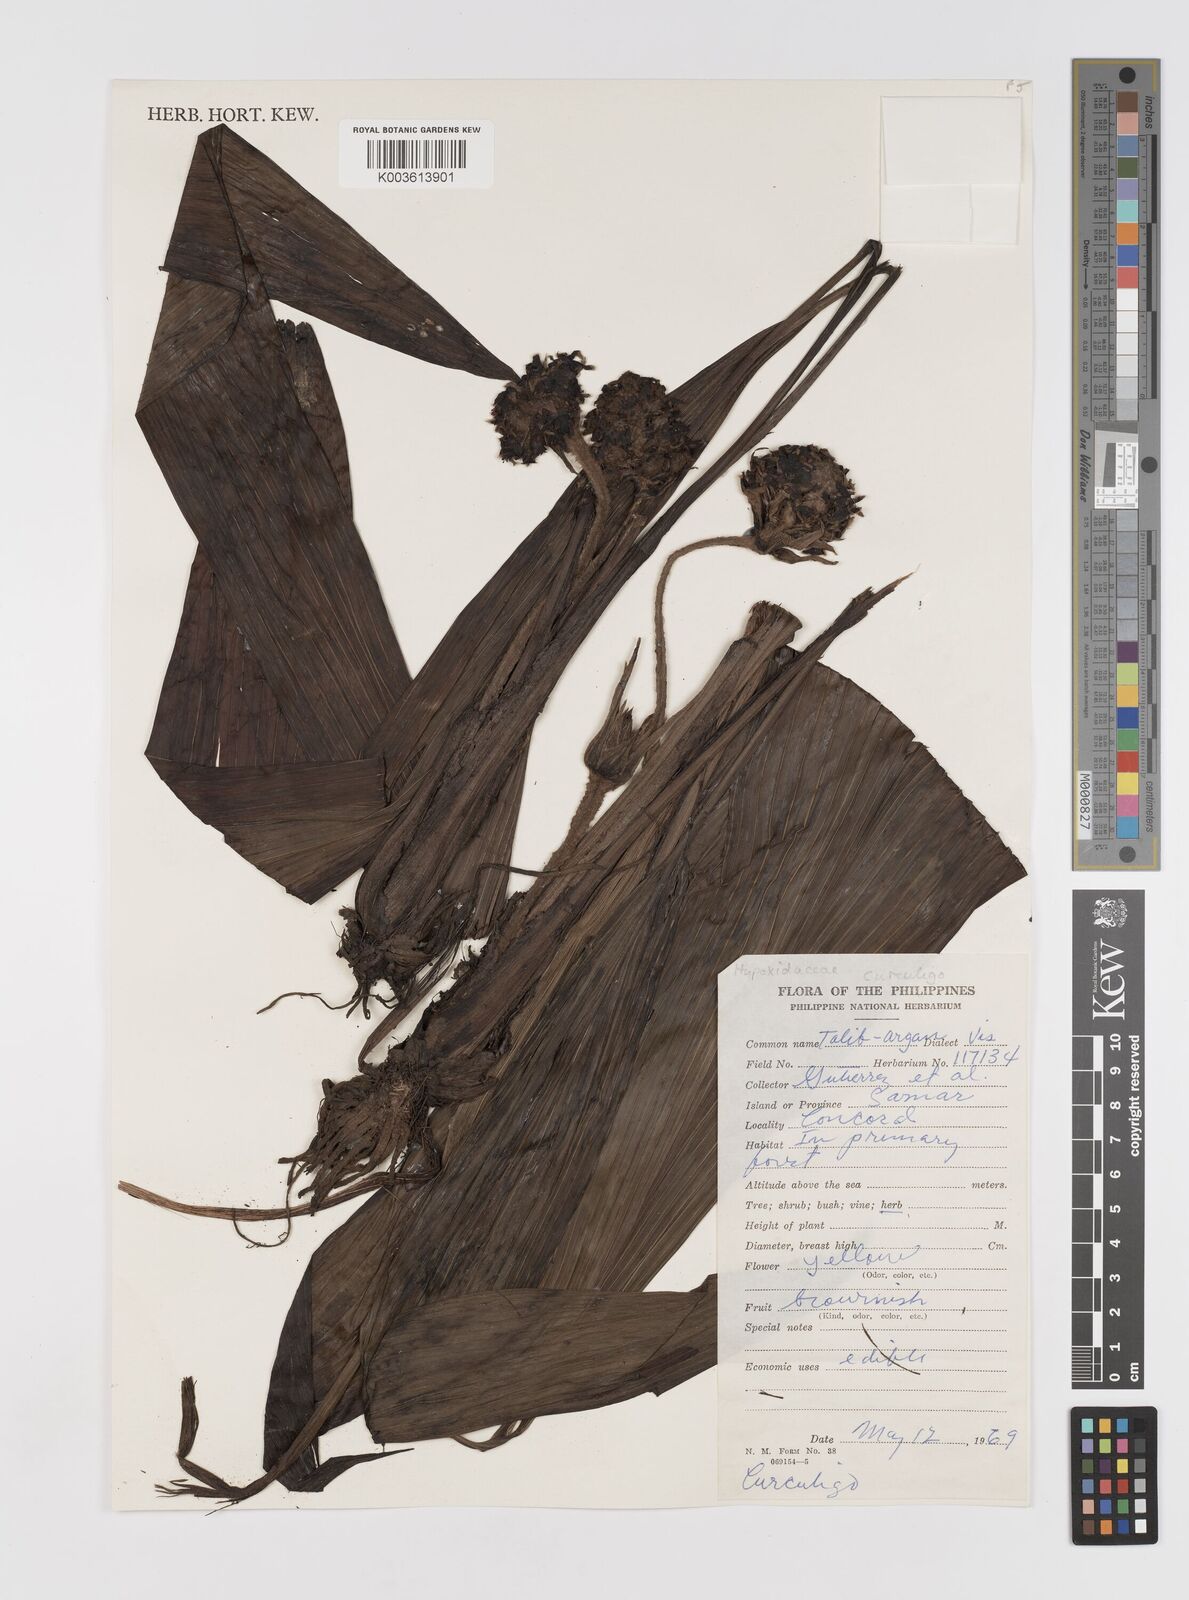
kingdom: Plantae
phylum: Tracheophyta
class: Liliopsida
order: Asparagales
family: Hypoxidaceae
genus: Curculigo
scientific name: Curculigo capitulata
